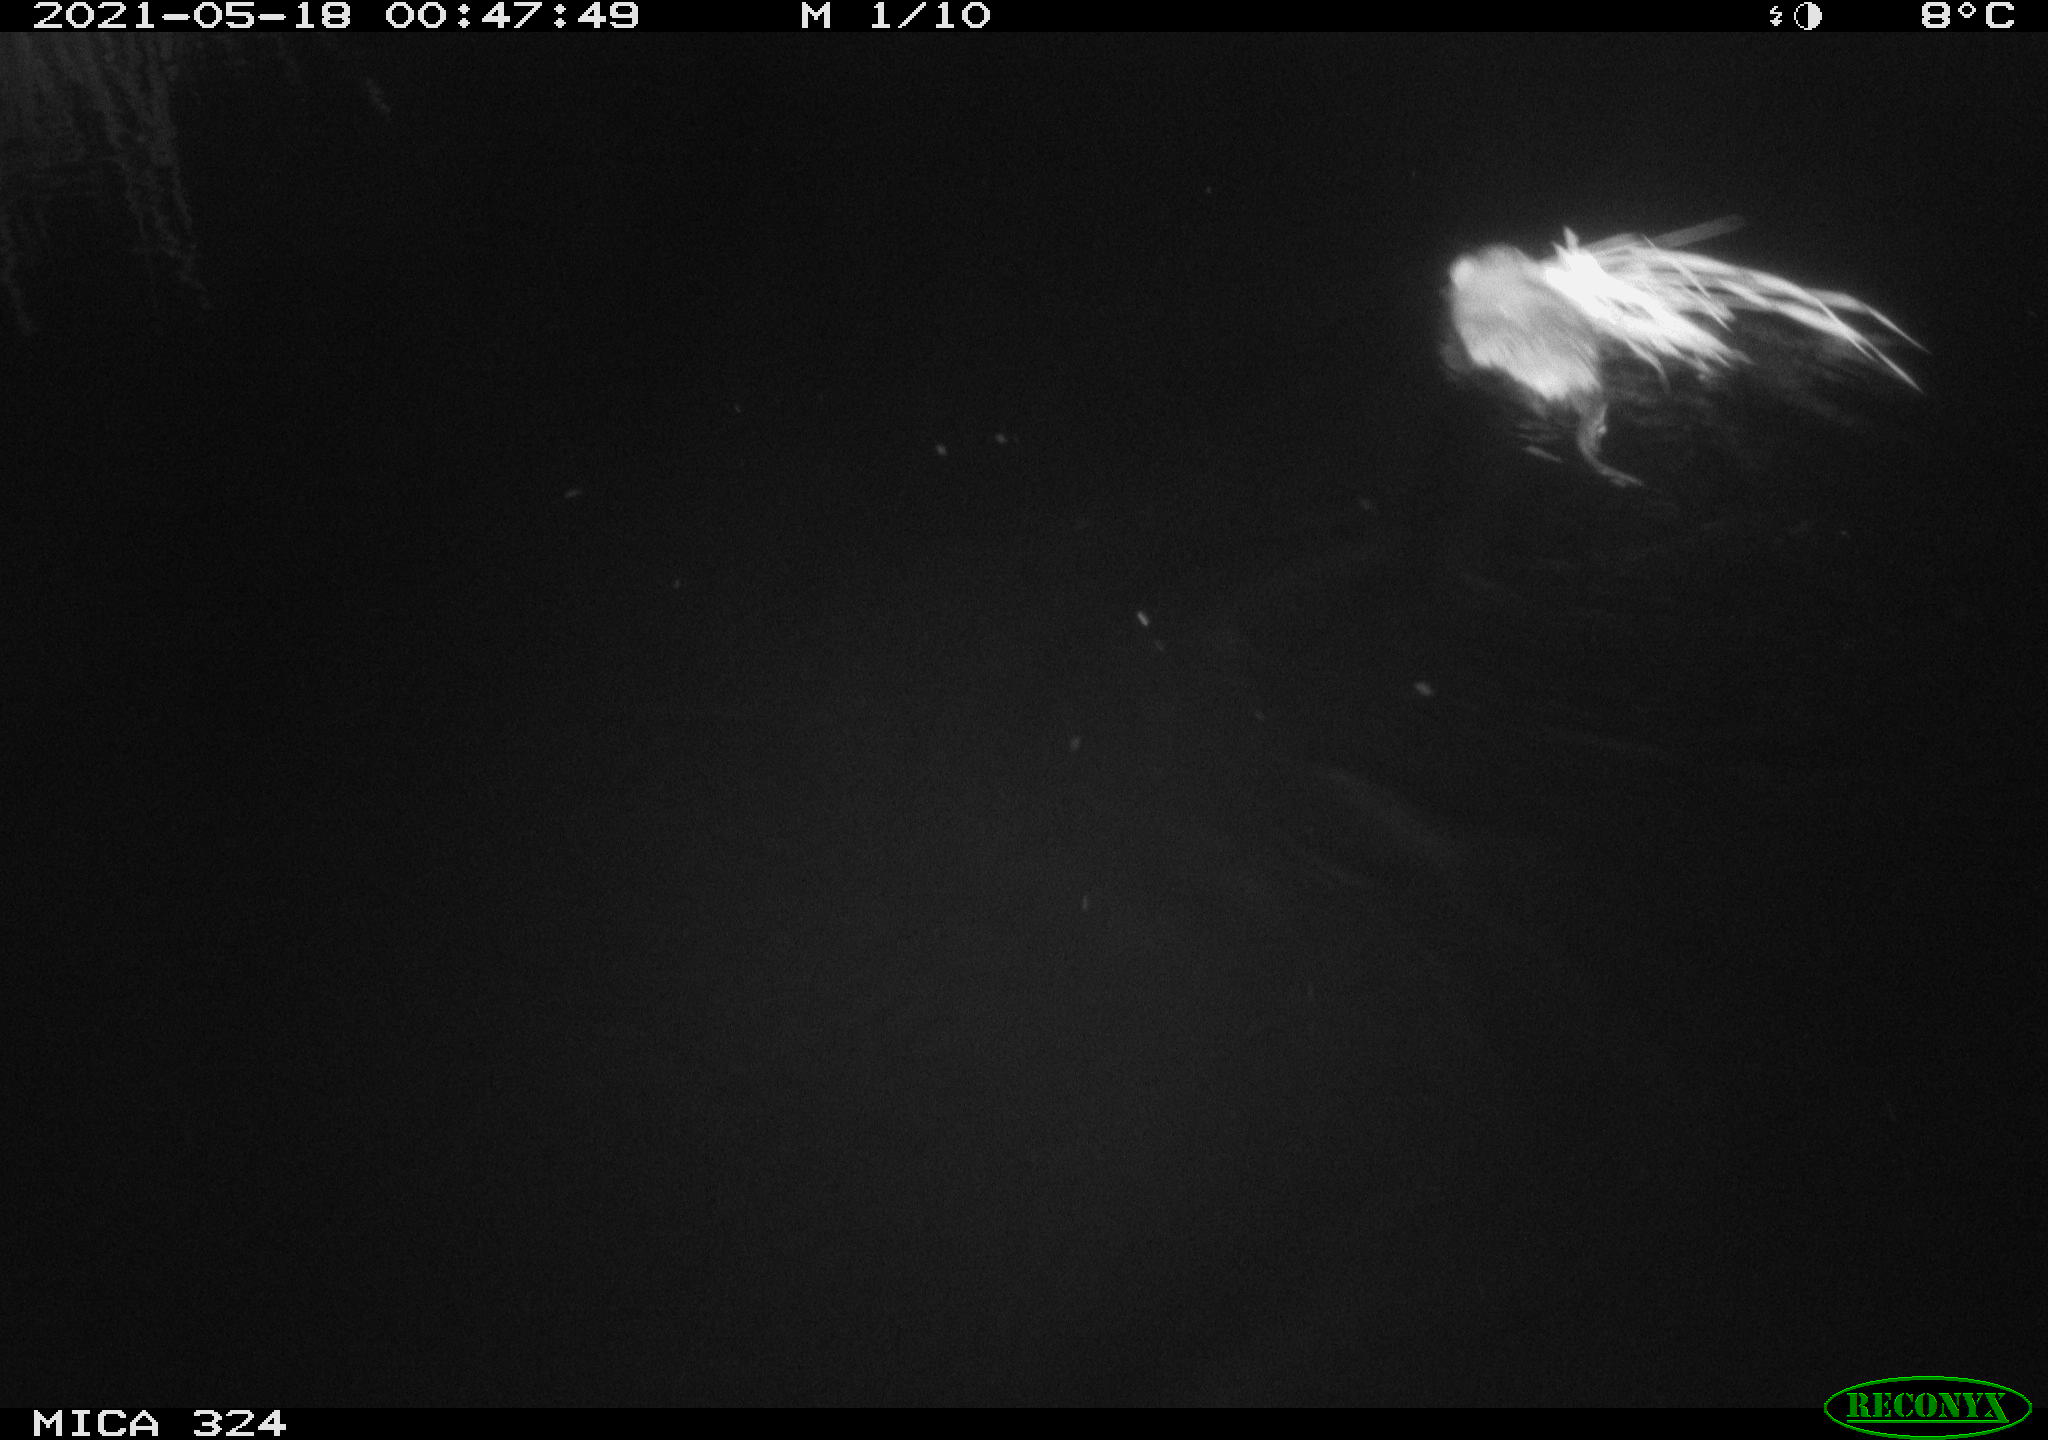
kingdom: Animalia
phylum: Chordata
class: Mammalia
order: Rodentia
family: Cricetidae
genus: Ondatra
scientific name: Ondatra zibethicus
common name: Muskrat
